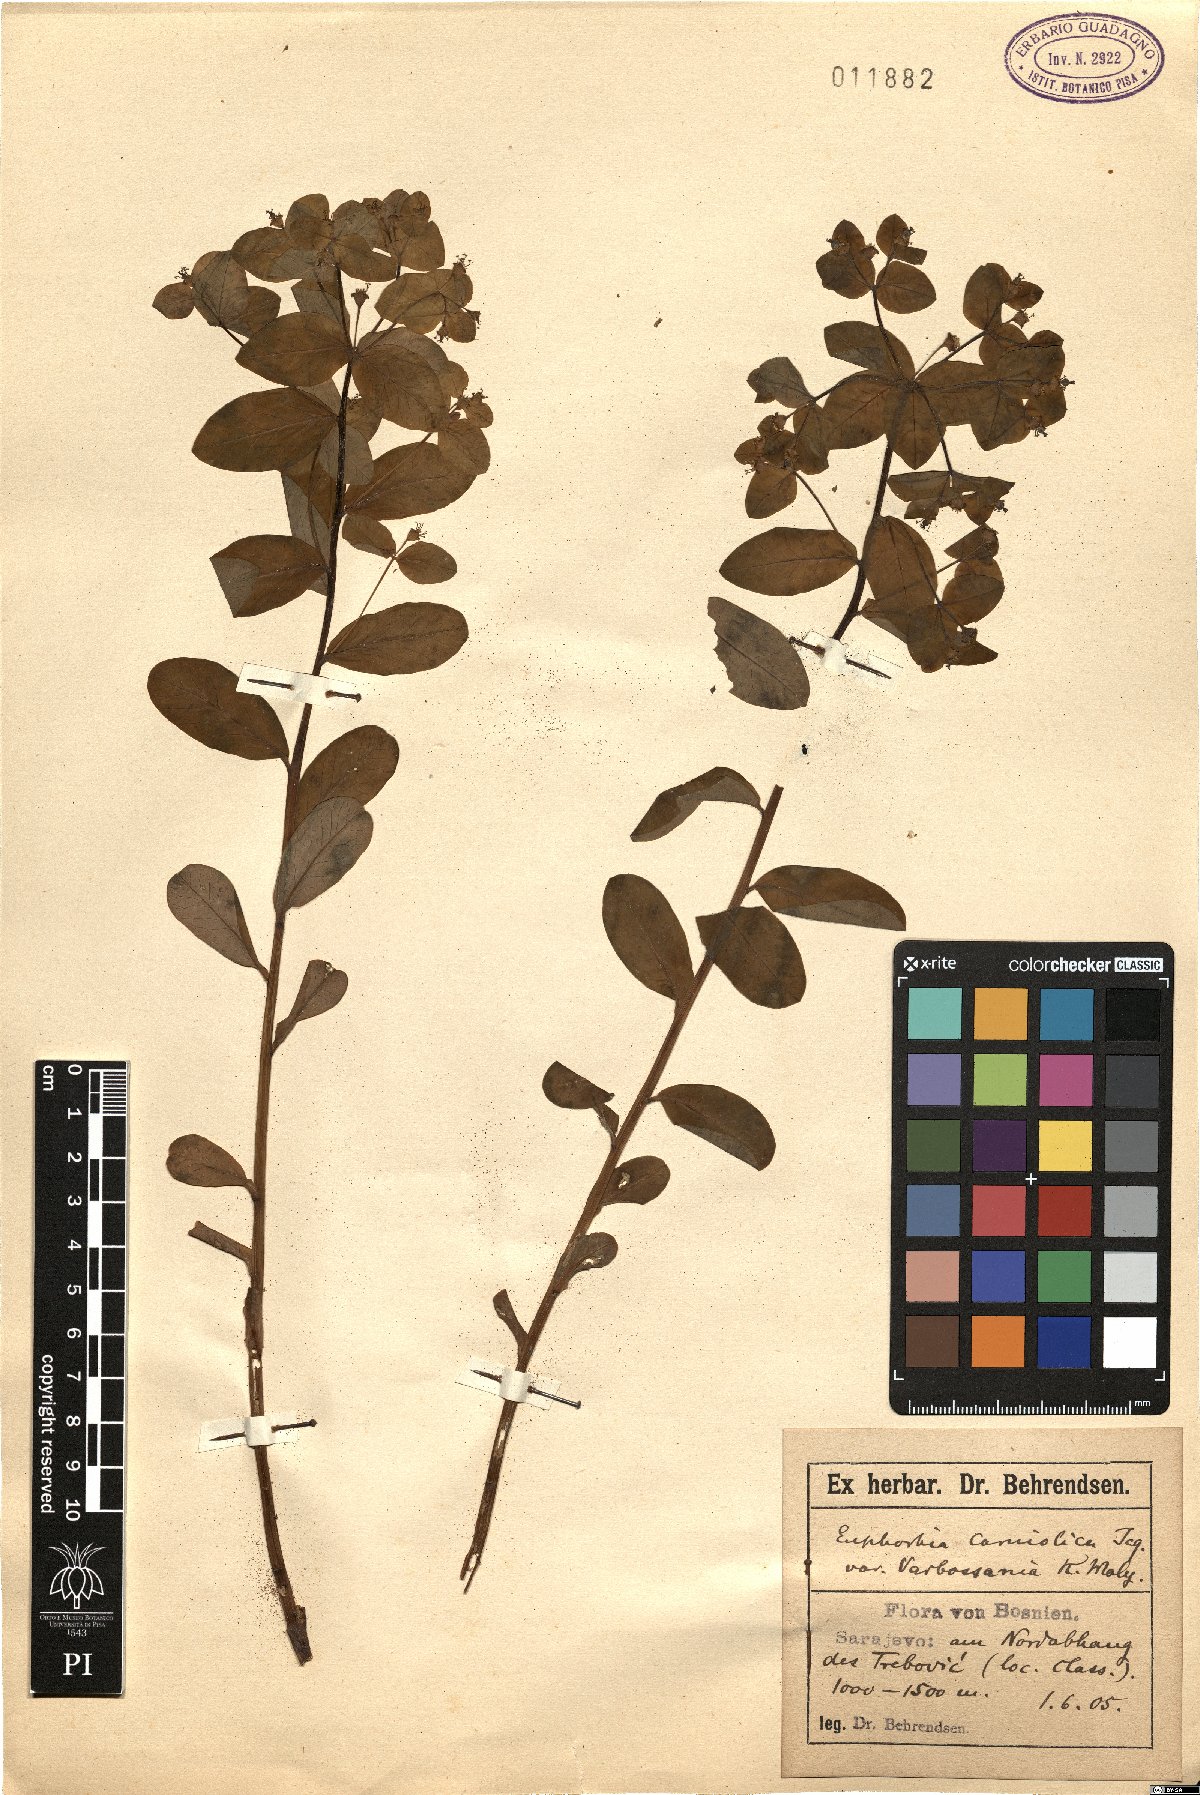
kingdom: Plantae
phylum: Tracheophyta
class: Magnoliopsida
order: Malpighiales
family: Euphorbiaceae
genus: Euphorbia
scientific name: Euphorbia carniolica
